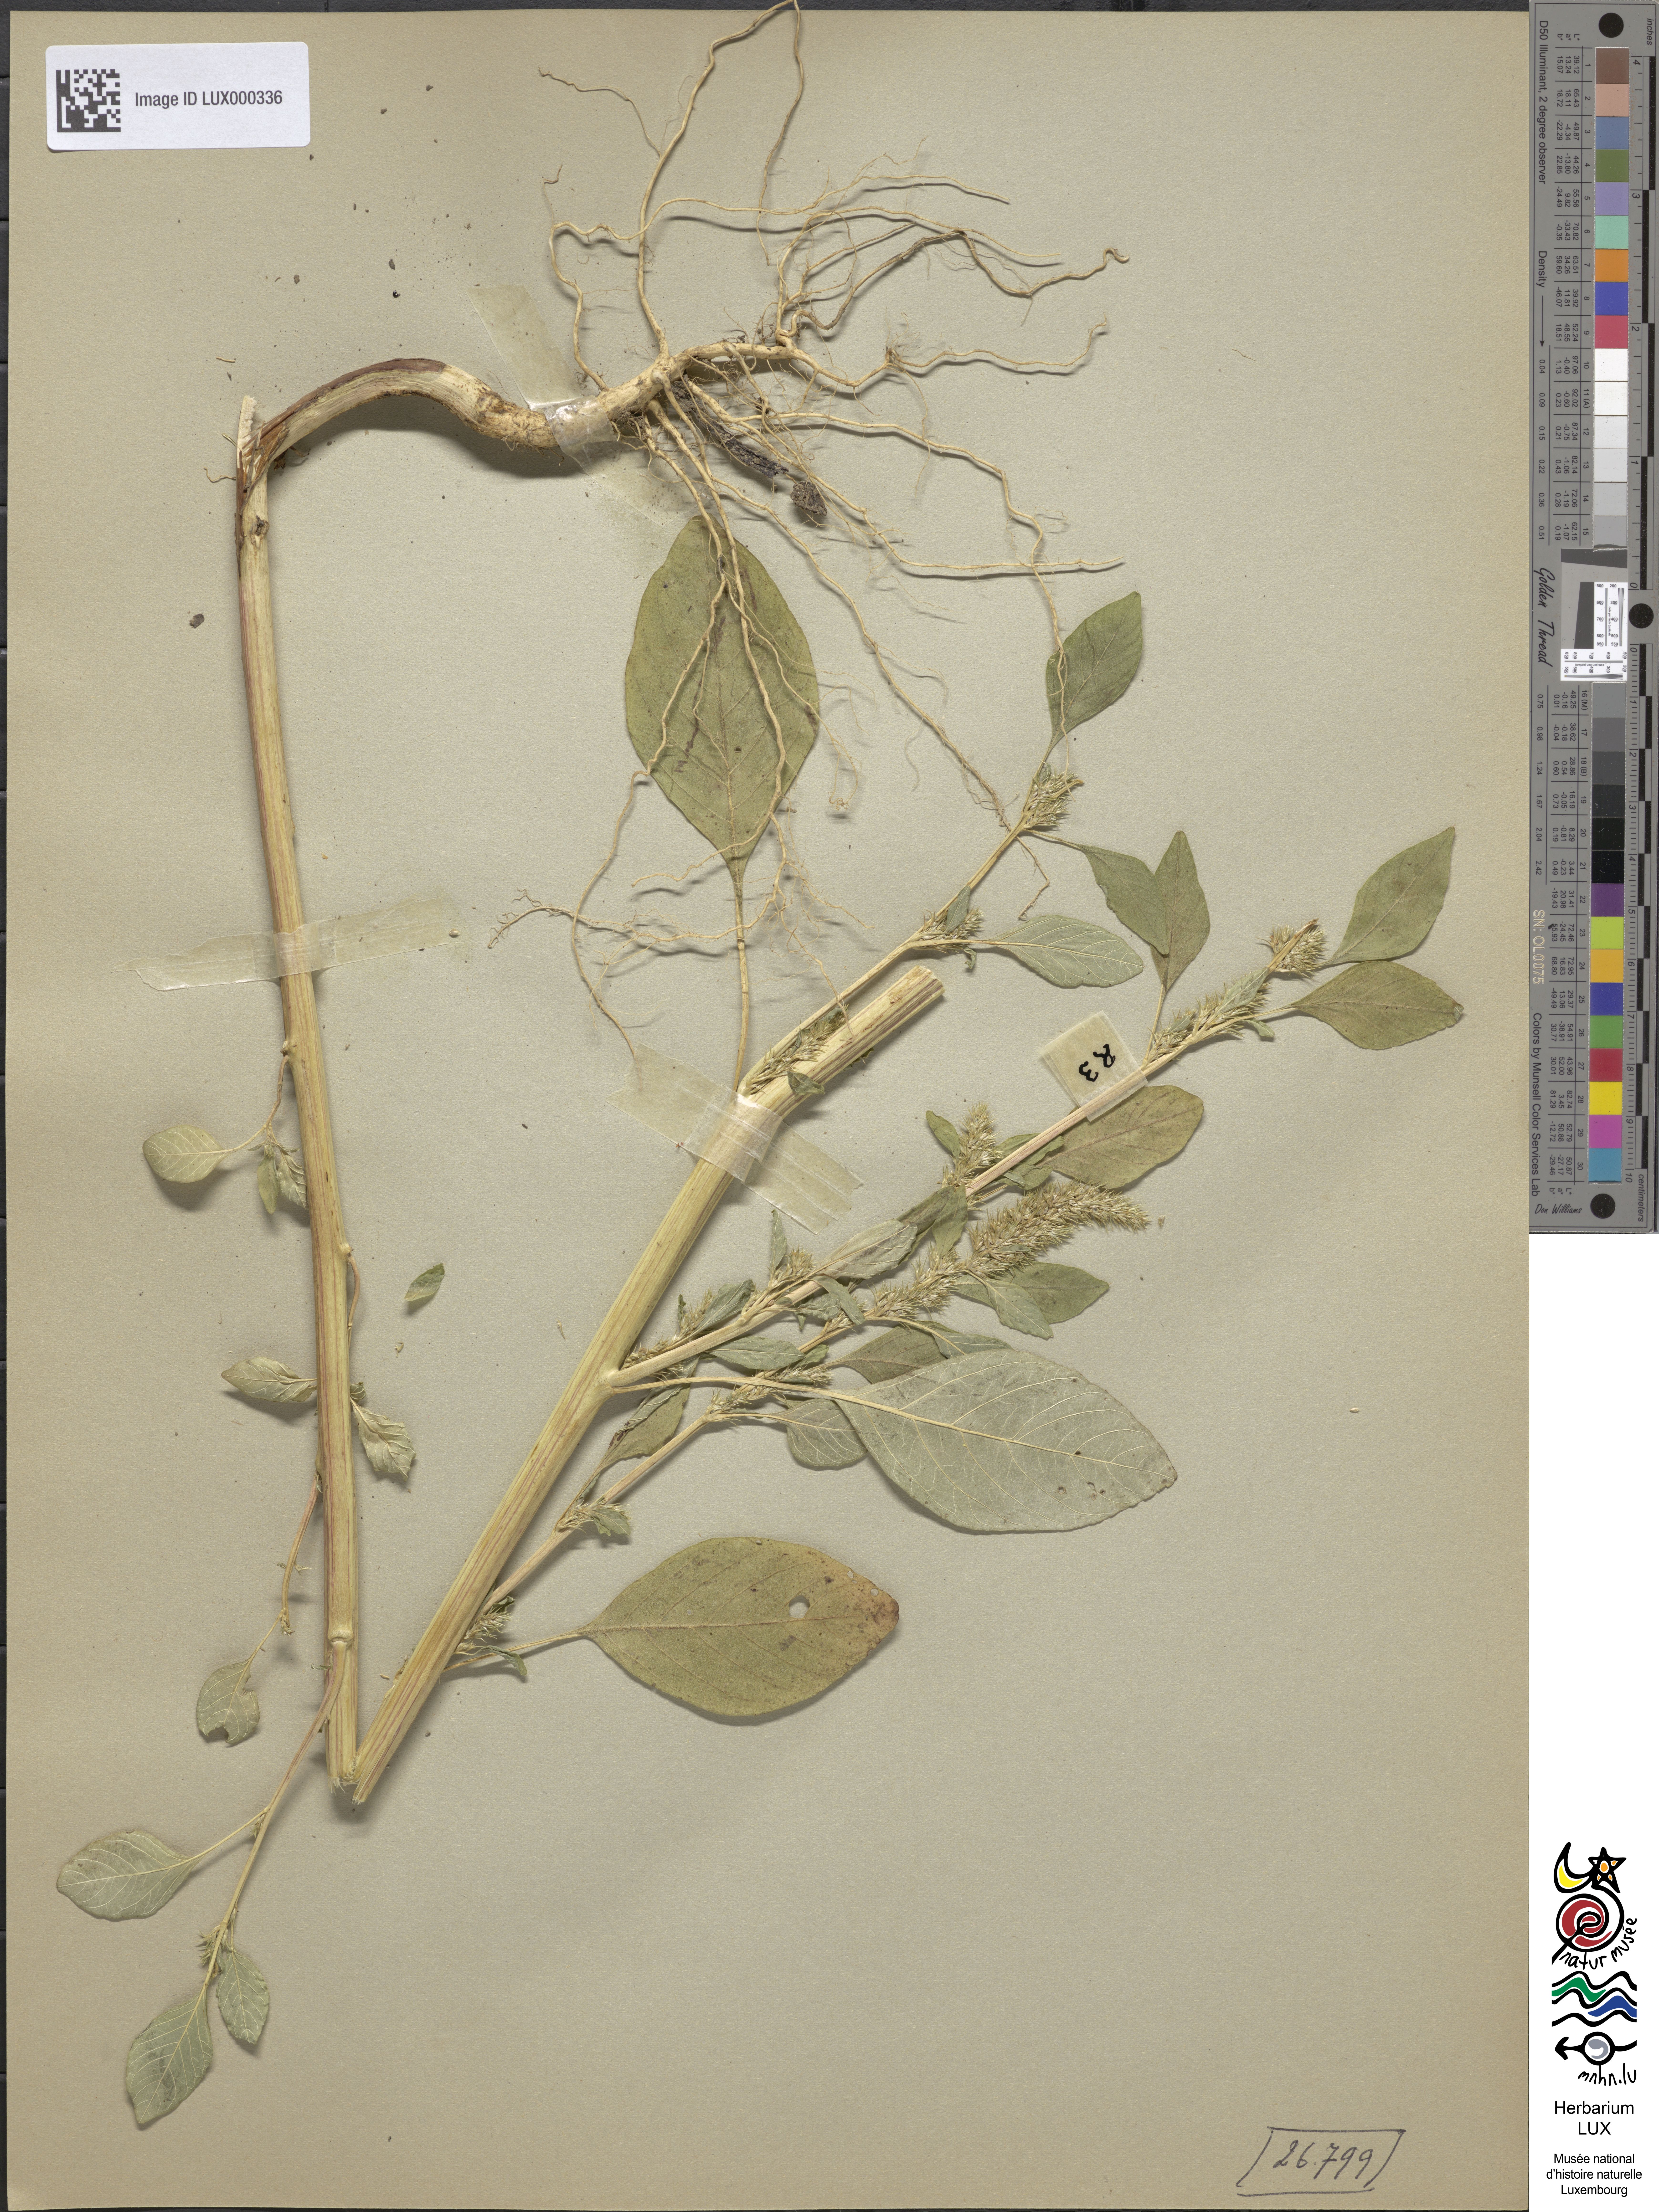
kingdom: Plantae
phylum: Tracheophyta
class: Magnoliopsida
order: Caryophyllales
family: Amaranthaceae
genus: Amaranthus
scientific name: Amaranthus bouchonii
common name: Indehiscent amaranth
